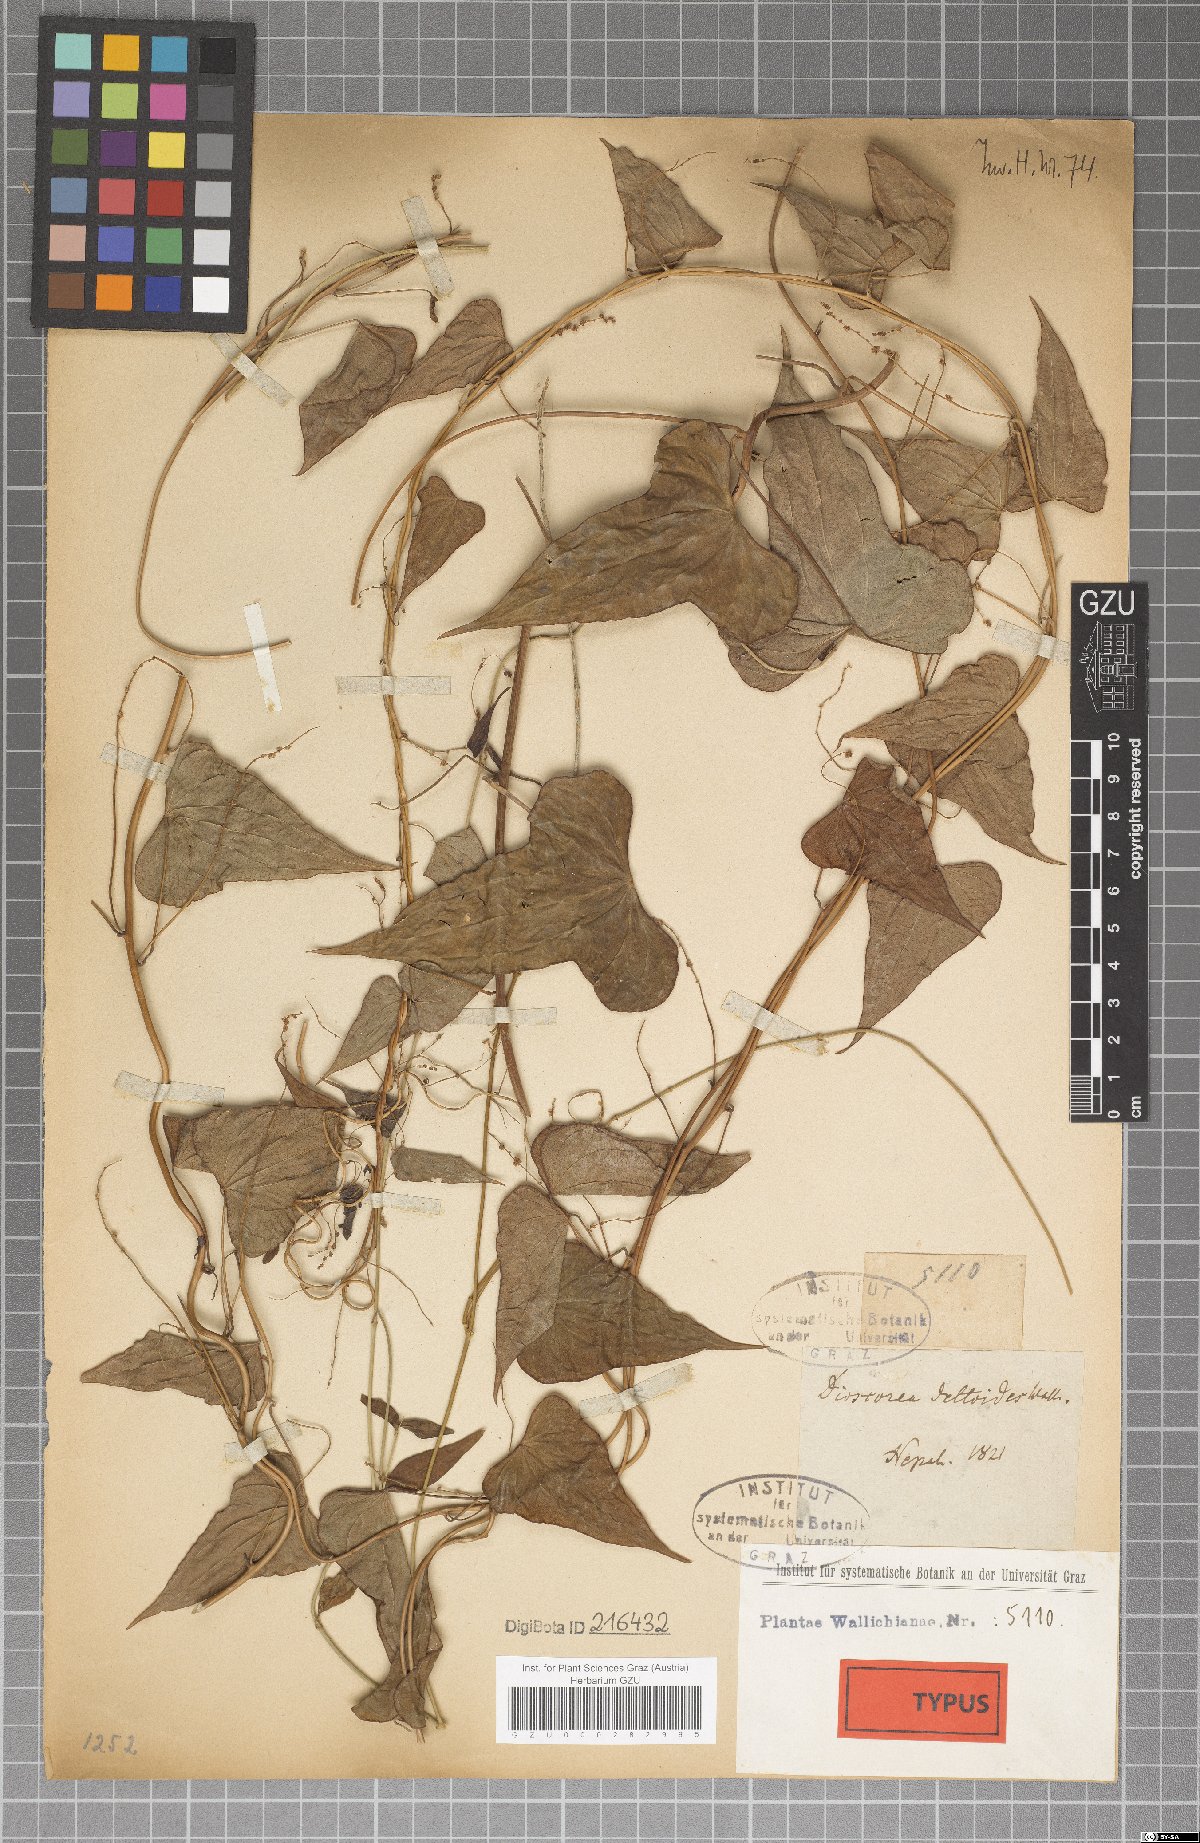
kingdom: Plantae
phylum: Tracheophyta
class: Liliopsida
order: Dioscoreales
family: Dioscoreaceae
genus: Dioscorea
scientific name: Dioscorea deltoidea
